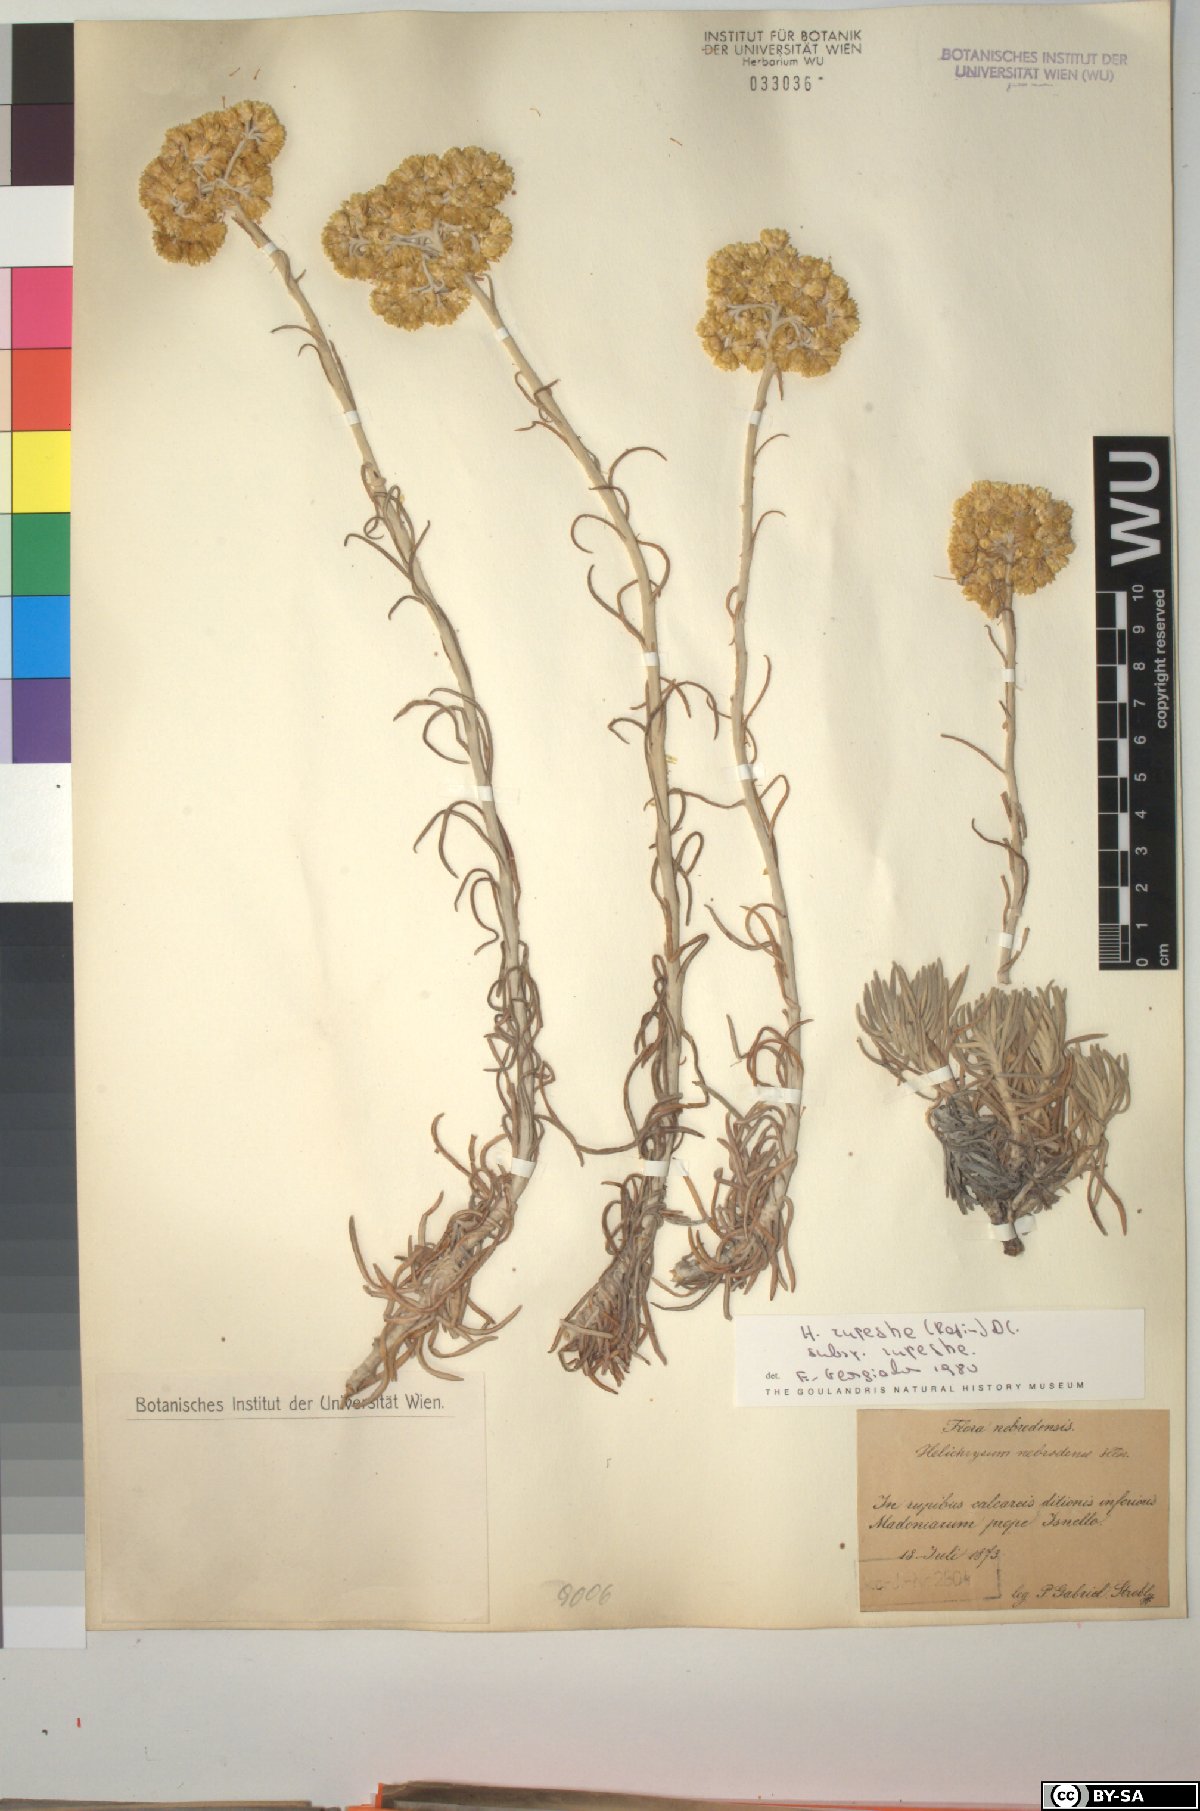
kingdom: Plantae
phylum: Tracheophyta
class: Magnoliopsida
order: Asterales
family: Asteraceae
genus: Helichrysum
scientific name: Helichrysum pendulum
